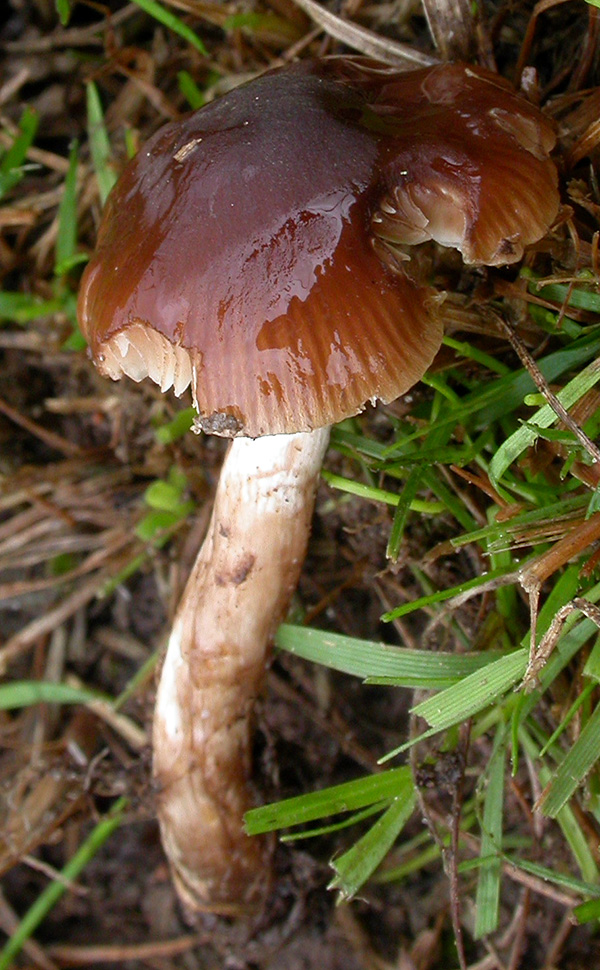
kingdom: Fungi
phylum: Basidiomycota
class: Agaricomycetes
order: Agaricales
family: Hymenogastraceae
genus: Naucoria
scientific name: Naucoria salicis
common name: pile-knaphat
